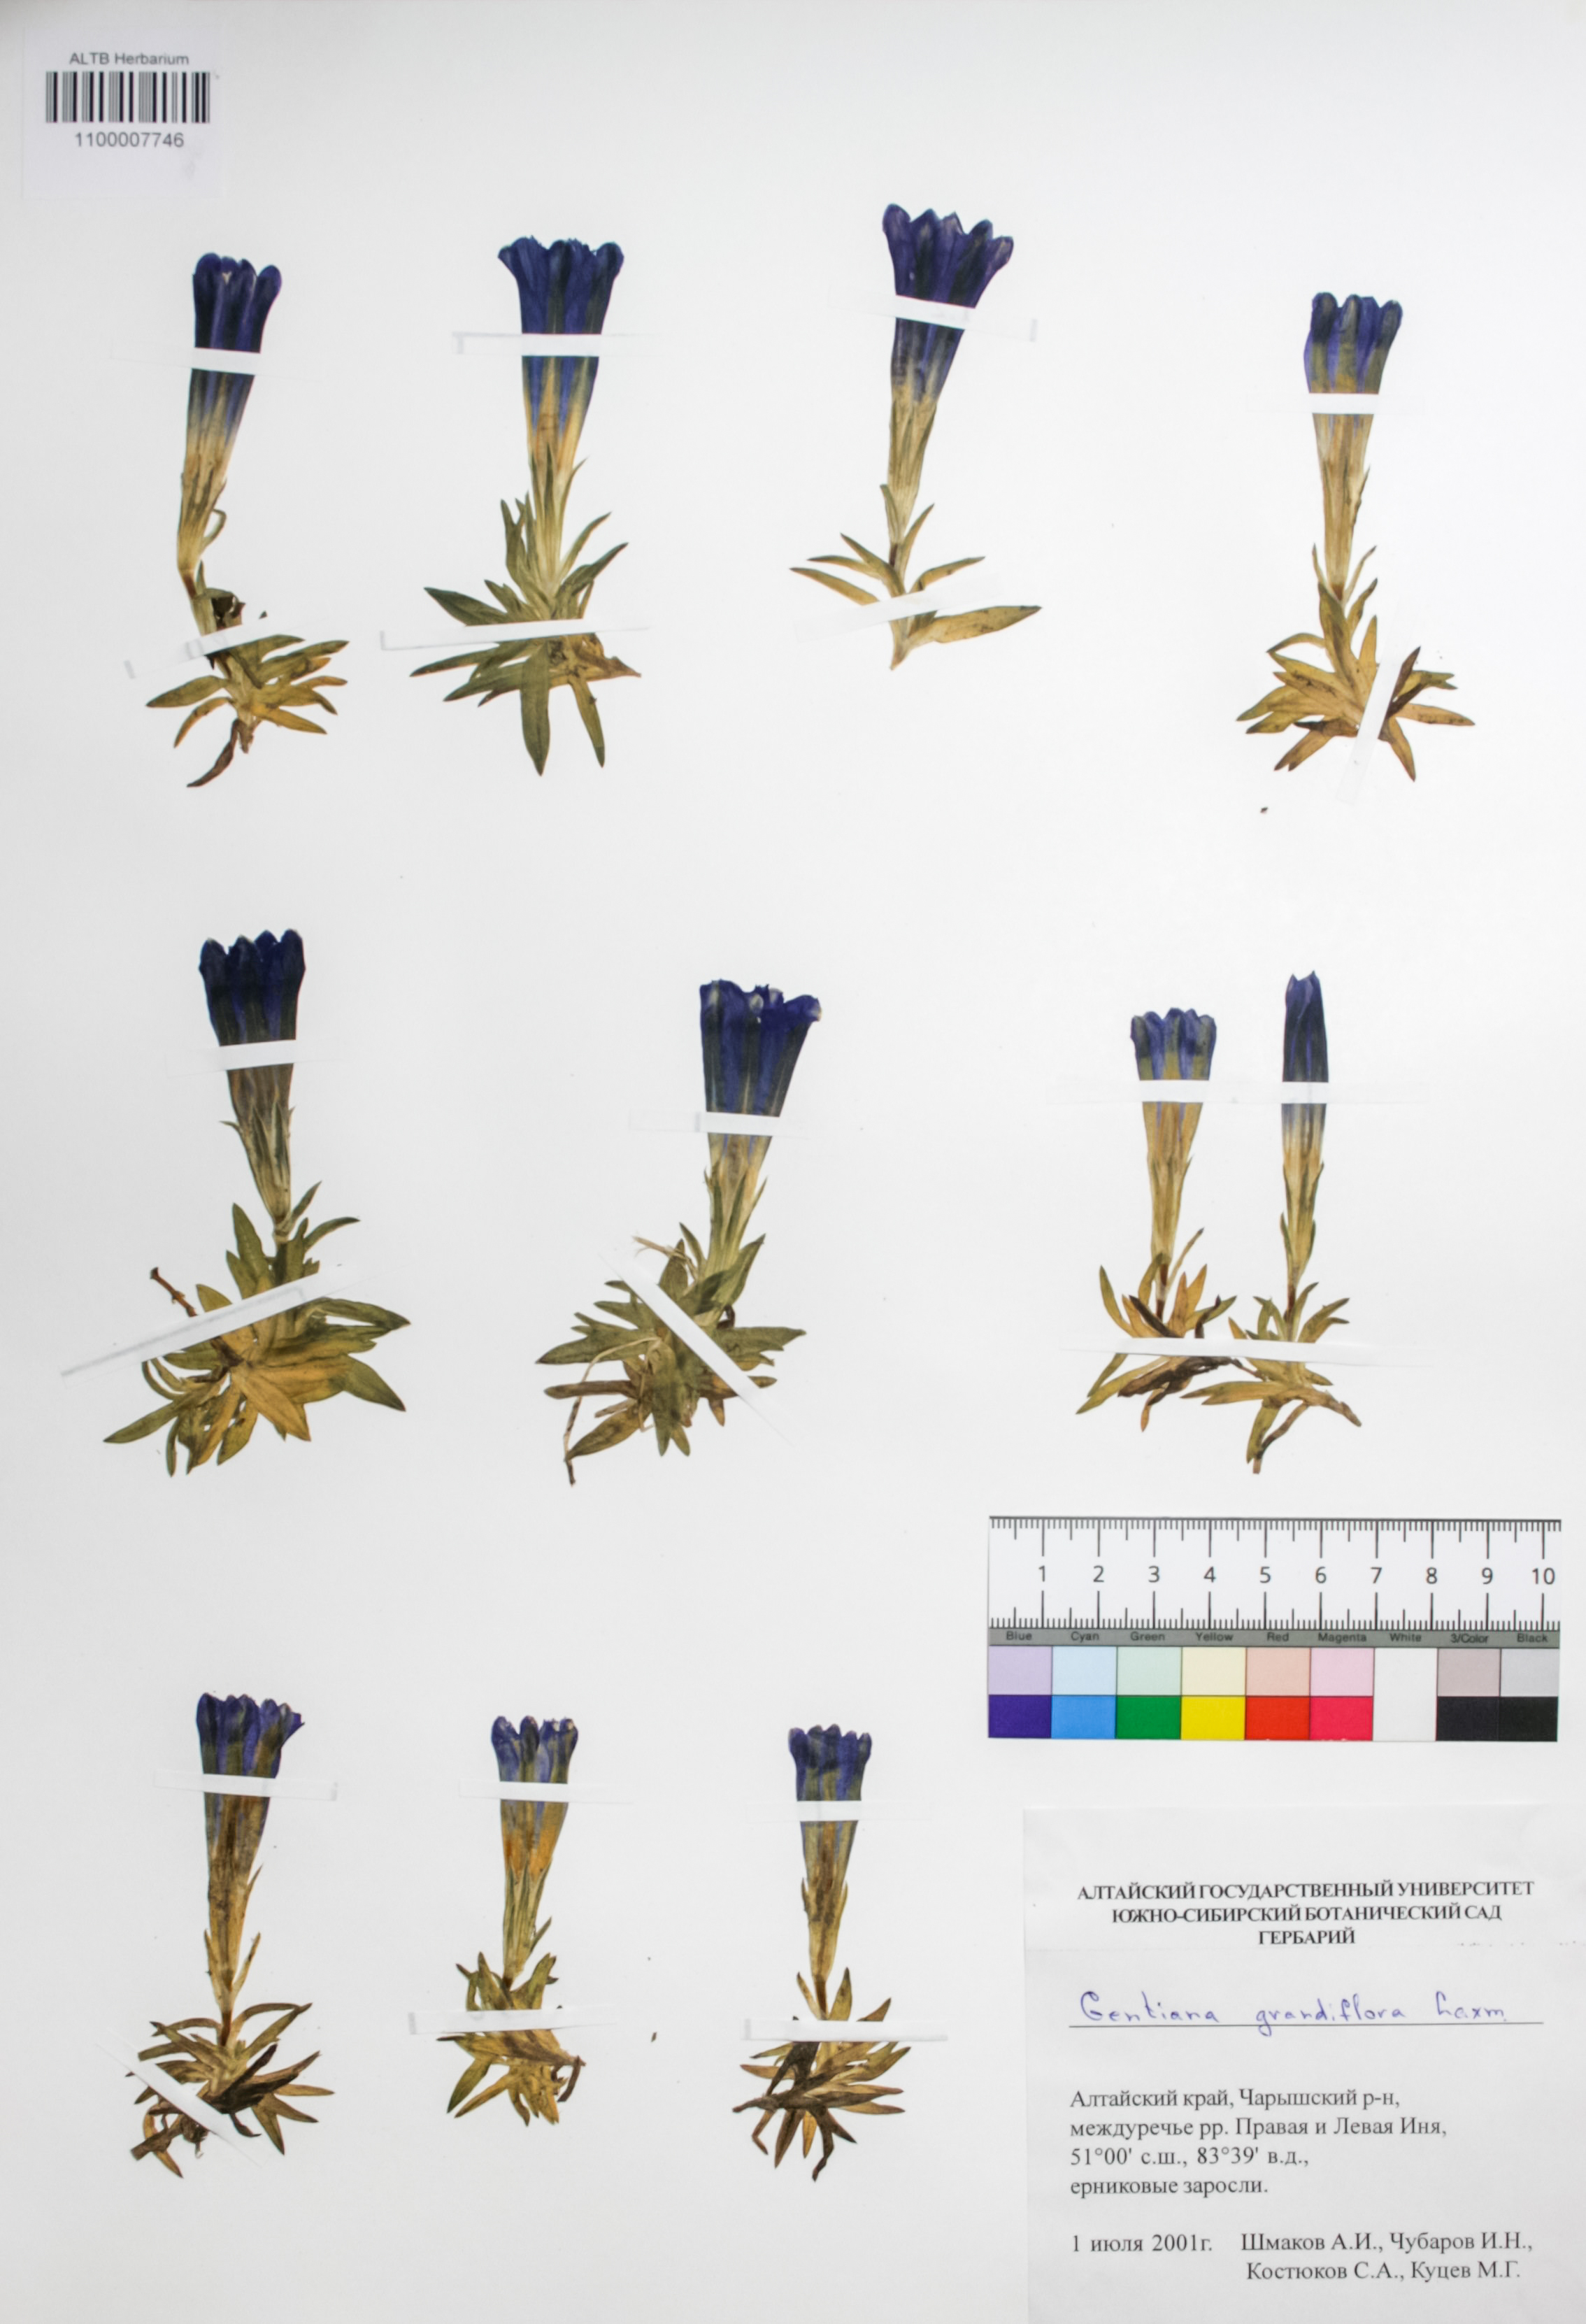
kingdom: Plantae
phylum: Tracheophyta
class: Magnoliopsida
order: Gentianales
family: Gentianaceae
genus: Gentiana
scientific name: Gentiana grandiflora
